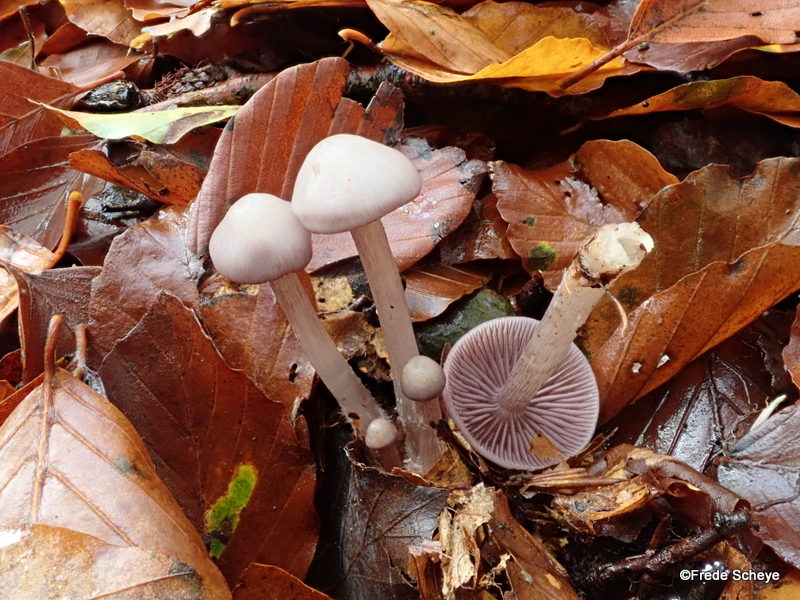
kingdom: Fungi
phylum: Basidiomycota
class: Agaricomycetes
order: Agaricales
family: Mycenaceae
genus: Mycena
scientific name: Mycena pelianthina
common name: mørkbladet huesvamp
